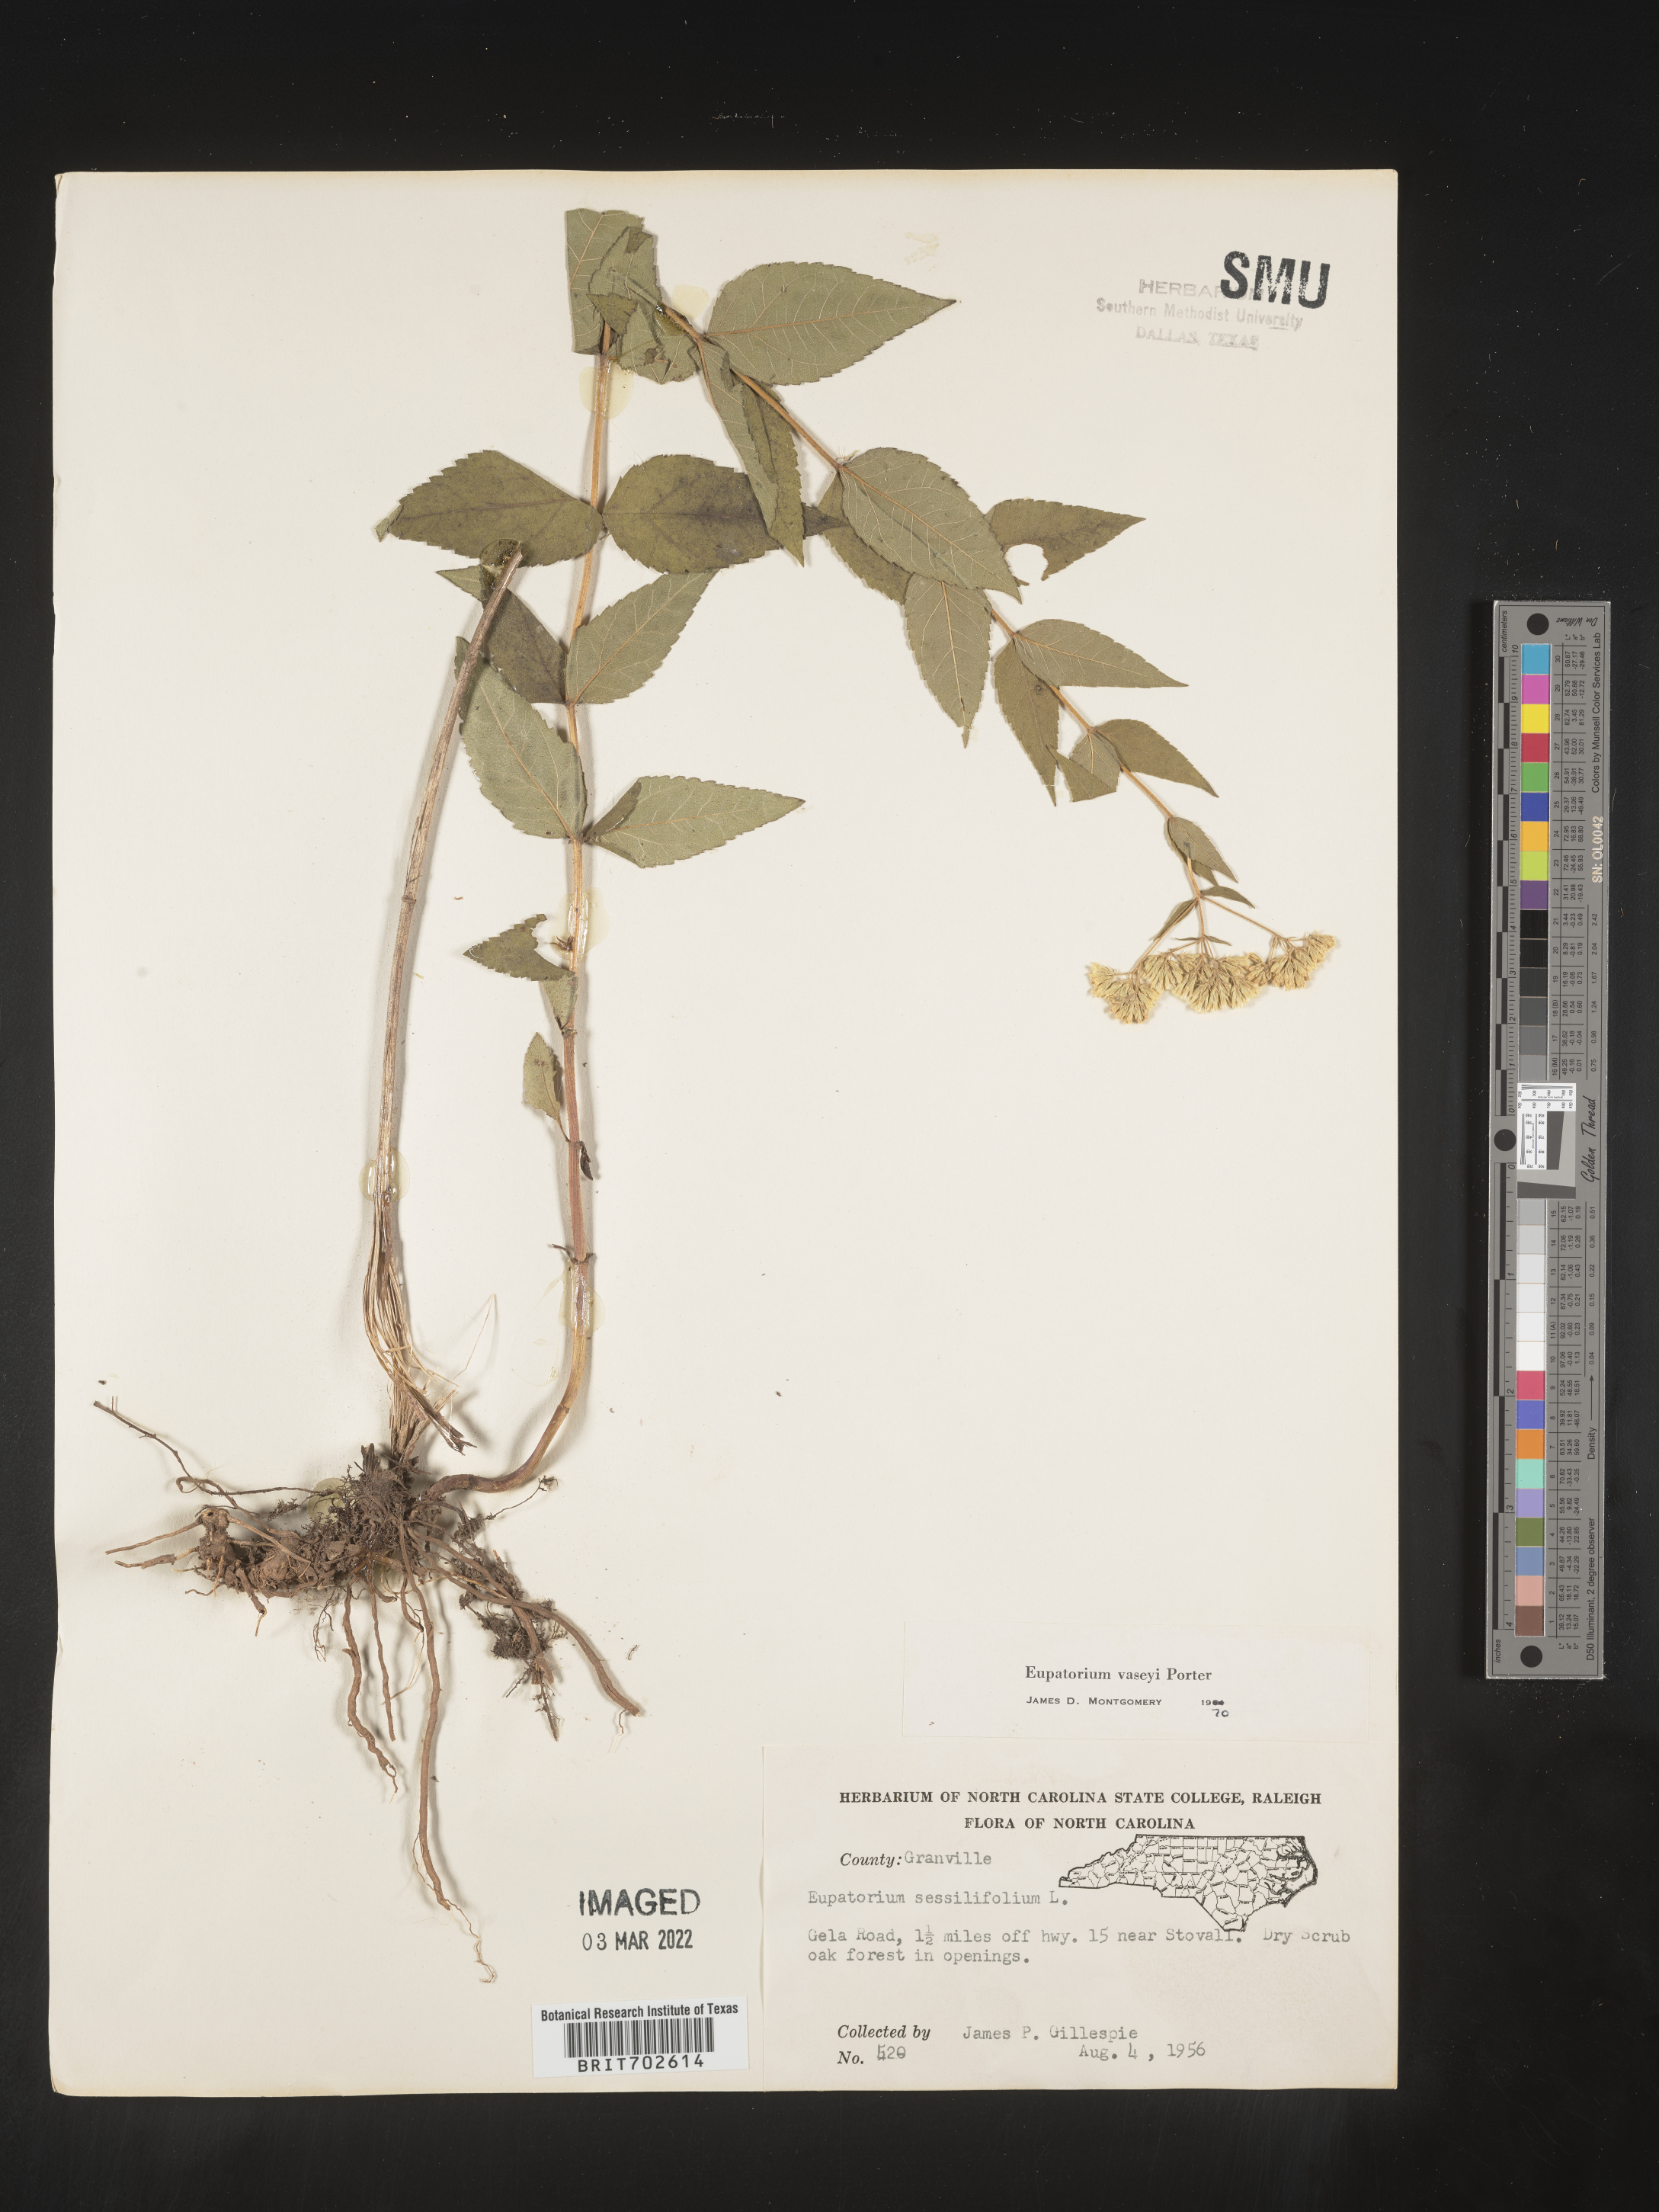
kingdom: Plantae
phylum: Tracheophyta
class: Magnoliopsida
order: Asterales
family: Asteraceae
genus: Eupatorium
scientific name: Eupatorium sessilifolium
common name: Upland boneset
